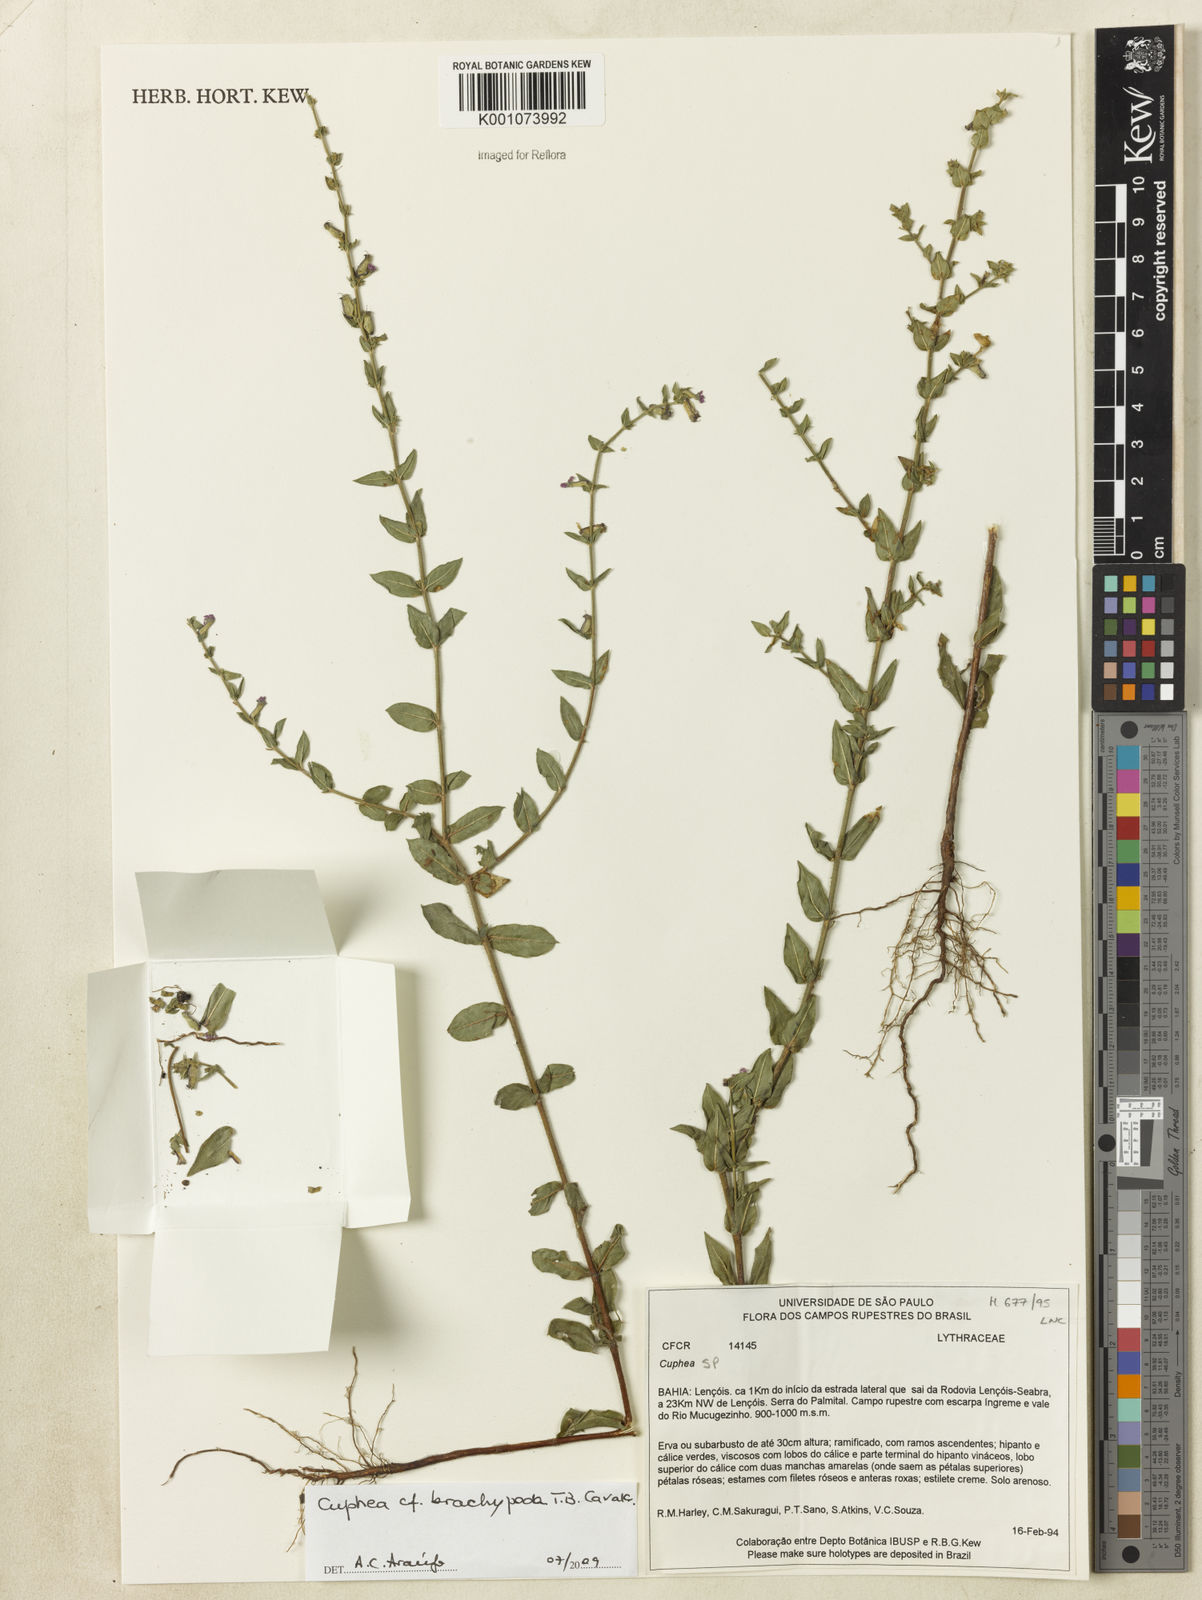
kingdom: Plantae
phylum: Tracheophyta
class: Magnoliopsida
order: Myrtales
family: Lythraceae
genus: Cuphea
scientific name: Cuphea brachypoda
